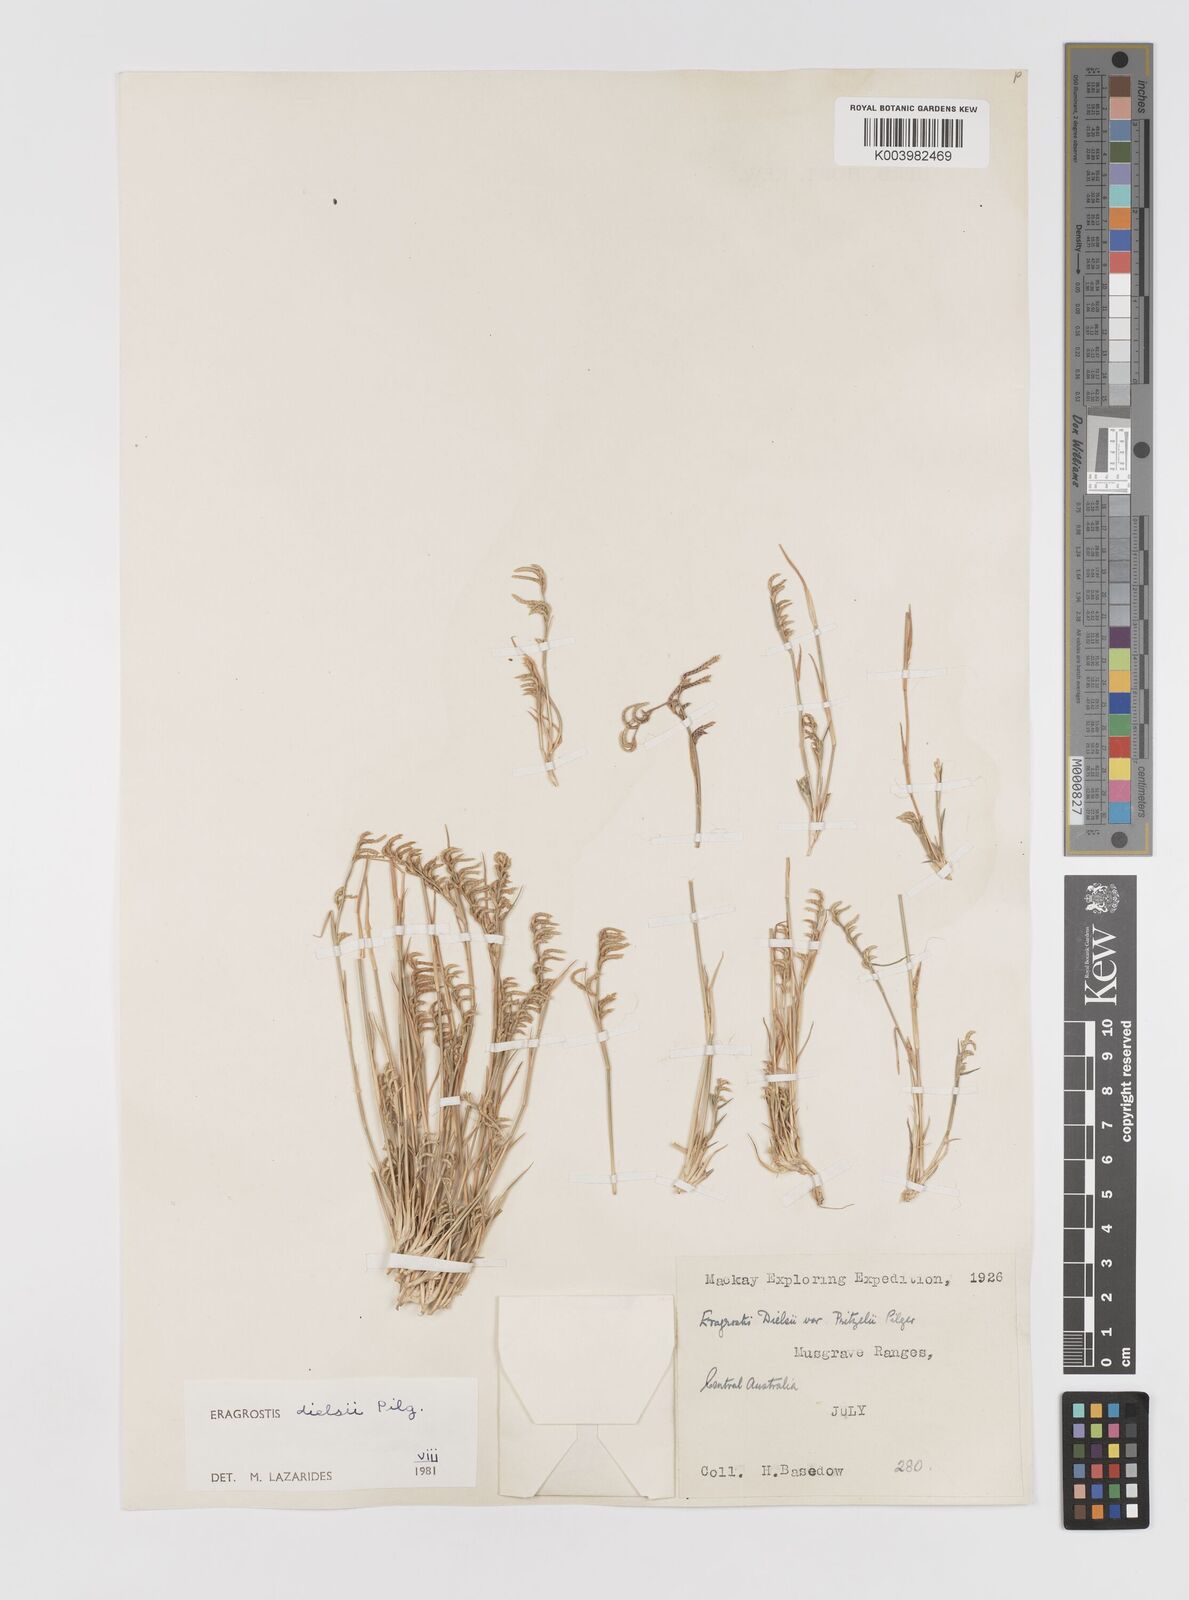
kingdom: Plantae
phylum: Tracheophyta
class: Liliopsida
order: Poales
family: Poaceae
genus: Eragrostis
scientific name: Eragrostis dielsii
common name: Lovegrass
